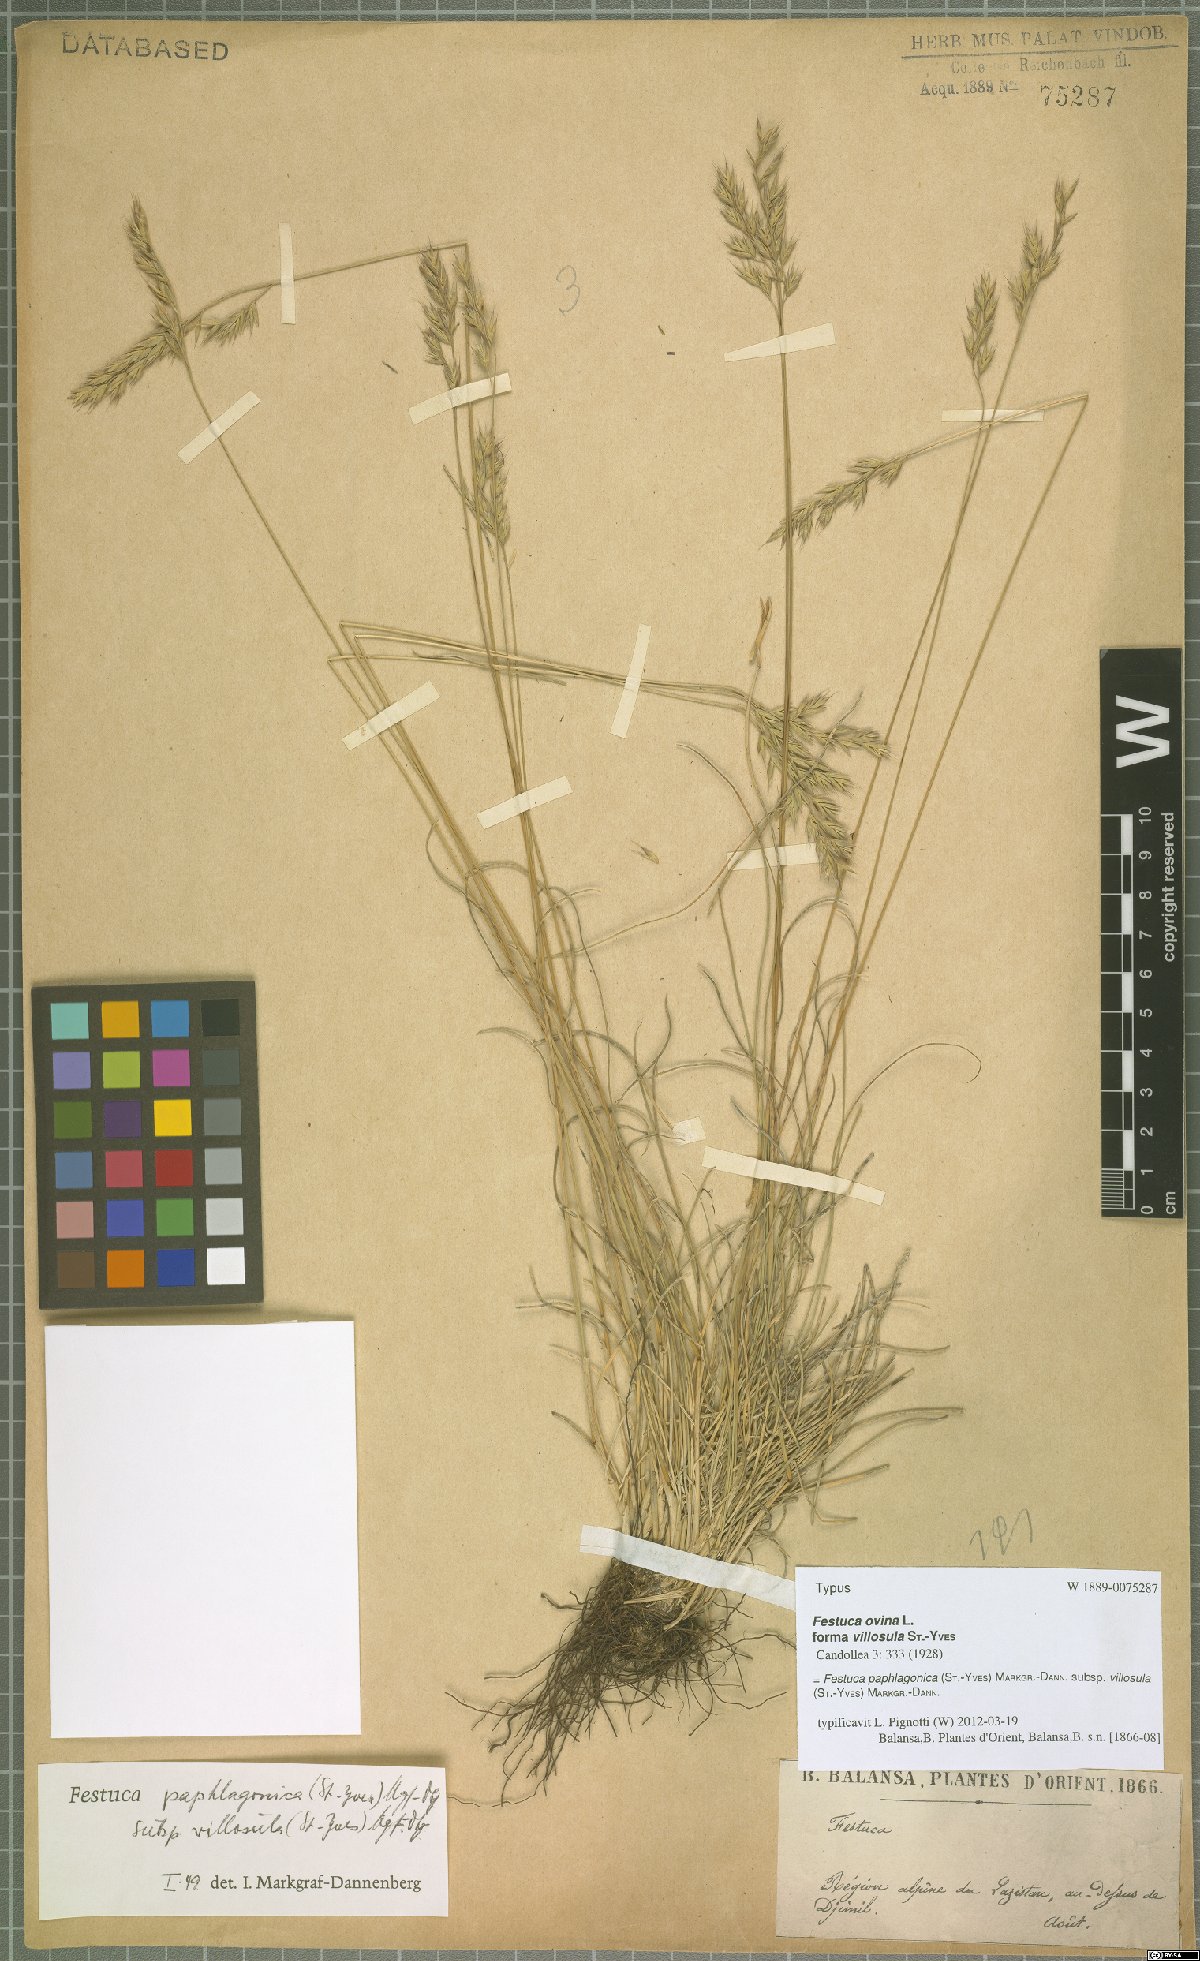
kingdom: Plantae
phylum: Tracheophyta
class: Liliopsida
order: Poales
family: Poaceae
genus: Festuca
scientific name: Festuca paphlagonica
